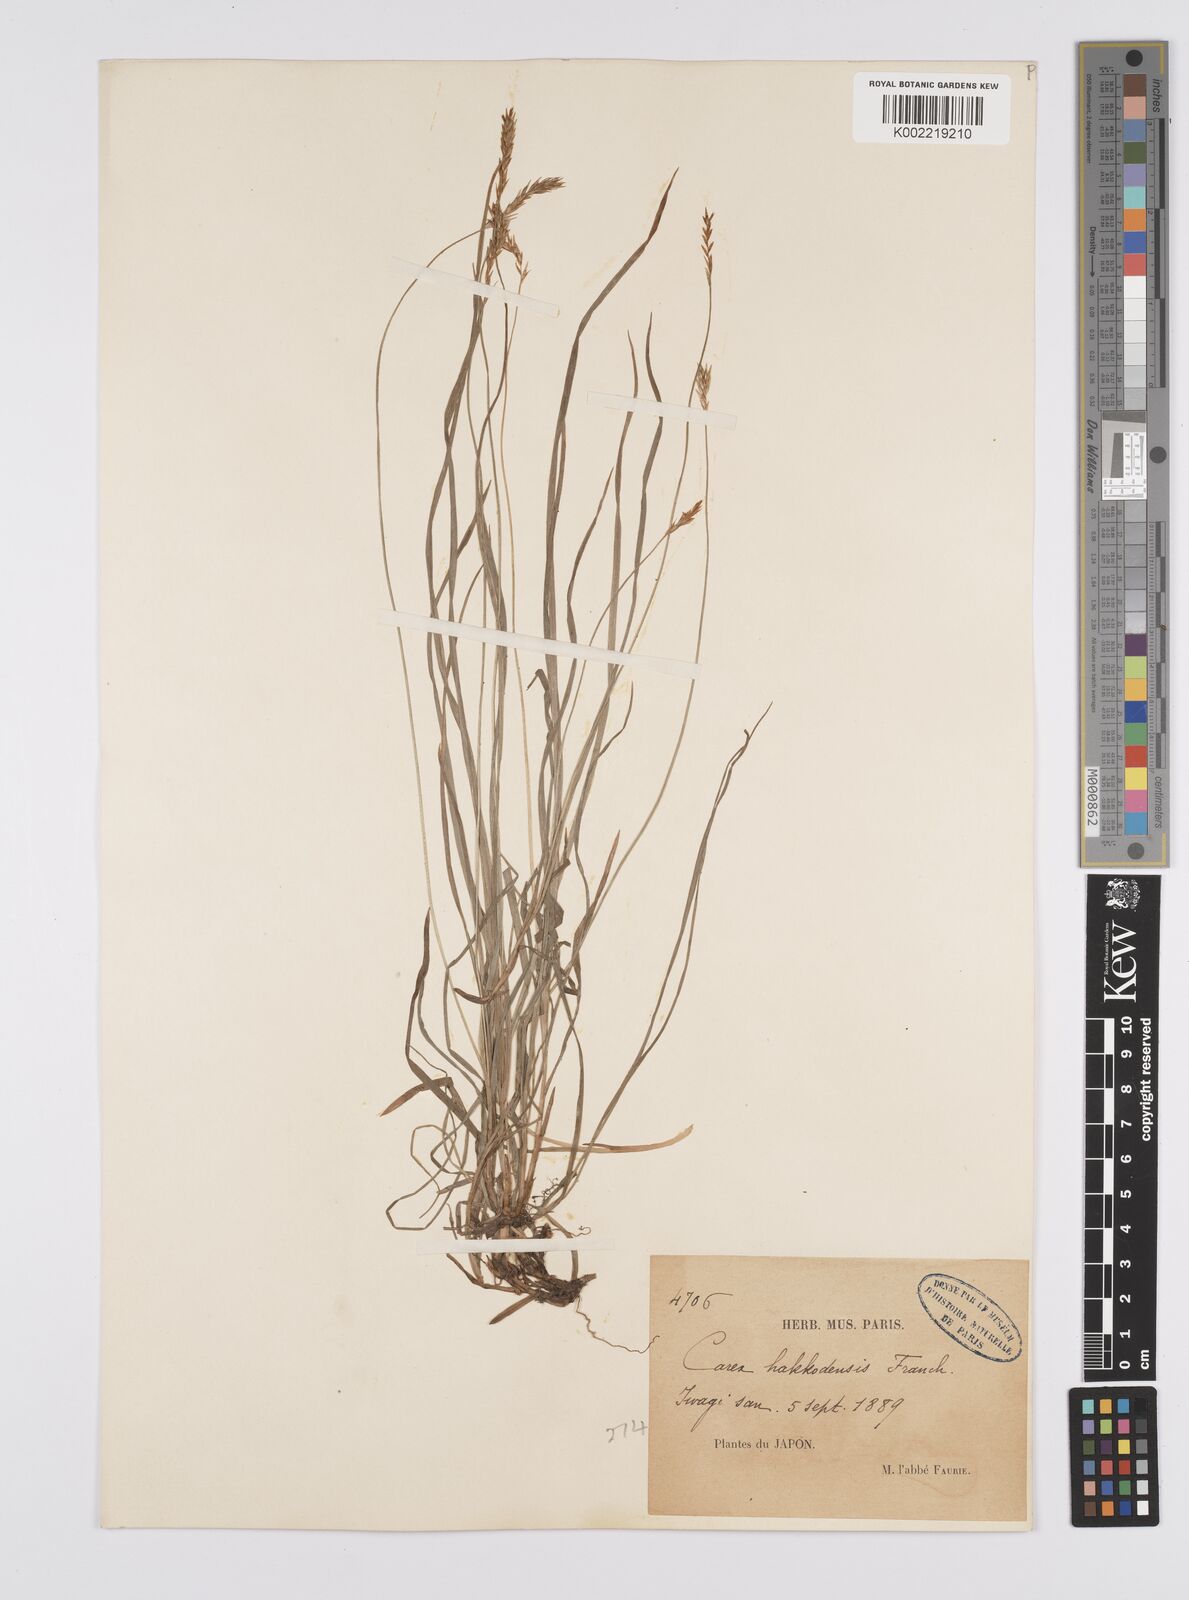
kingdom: Plantae
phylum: Tracheophyta
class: Liliopsida
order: Poales
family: Cyperaceae
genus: Carex
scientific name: Carex hakkodensis
